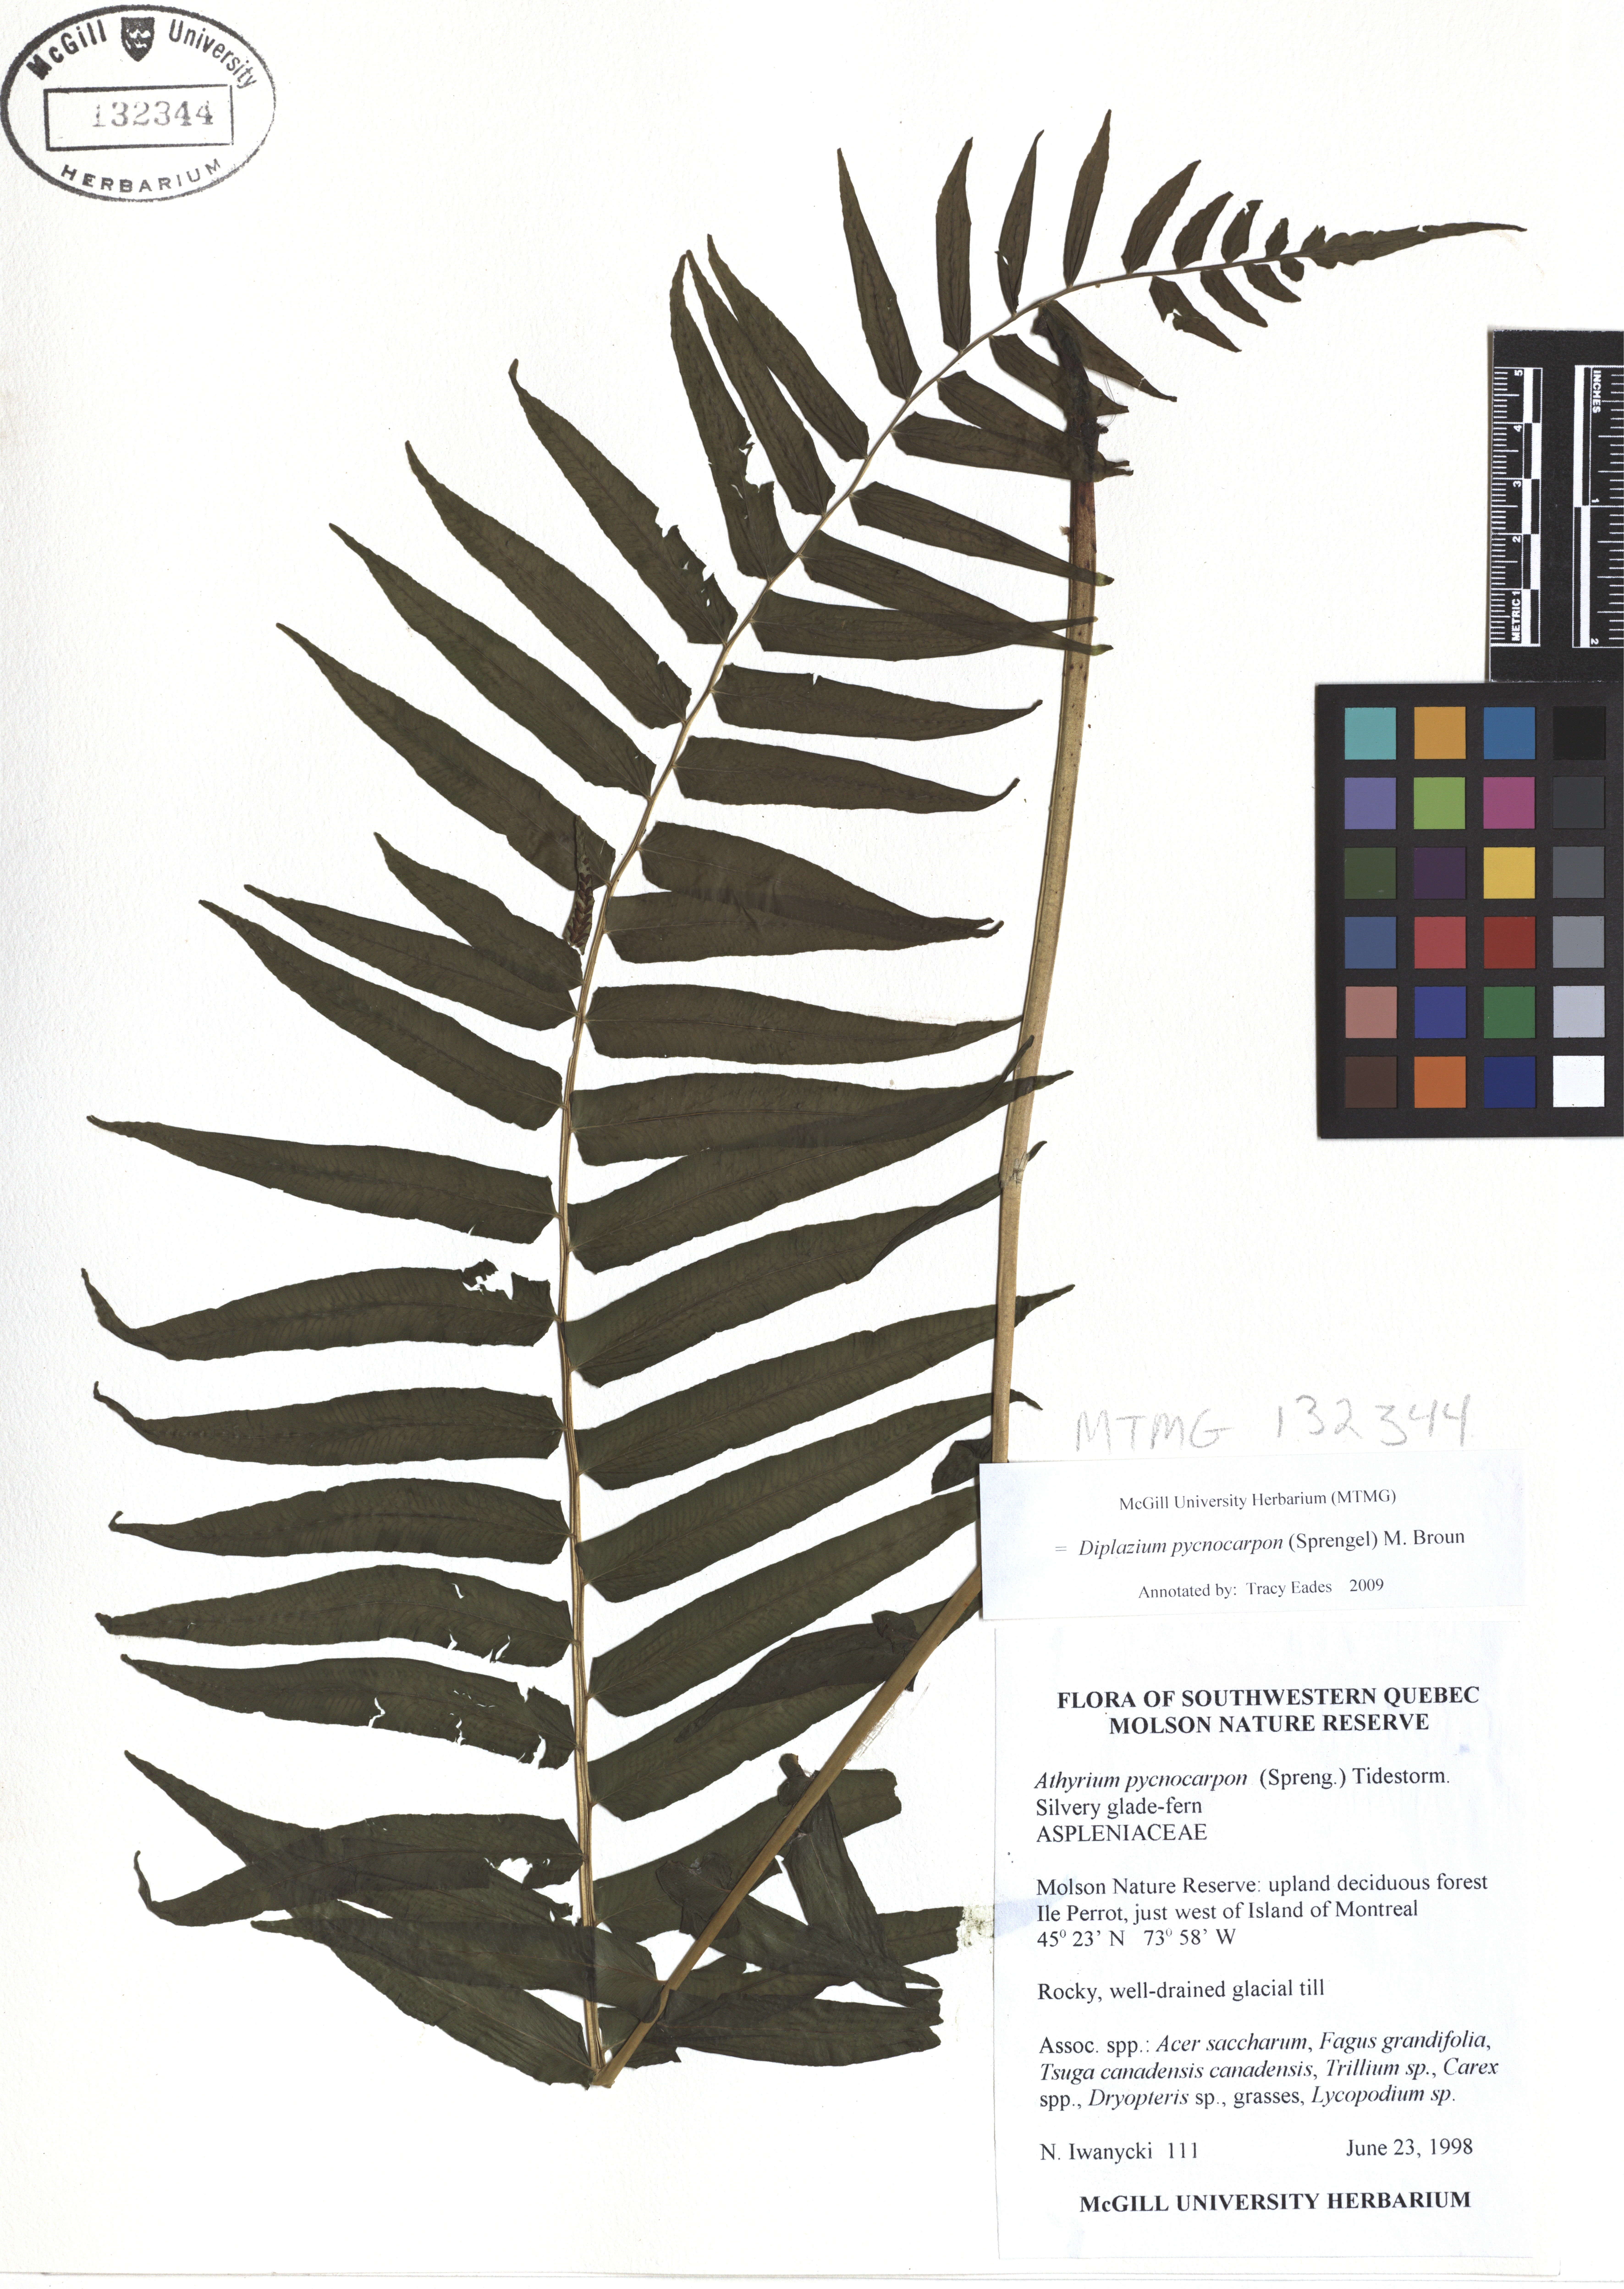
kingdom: Plantae
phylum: Tracheophyta
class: Polypodiopsida
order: Polypodiales
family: Diplaziopsidaceae
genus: Homalosorus
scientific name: Homalosorus pycnocarpos
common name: Glade fern
